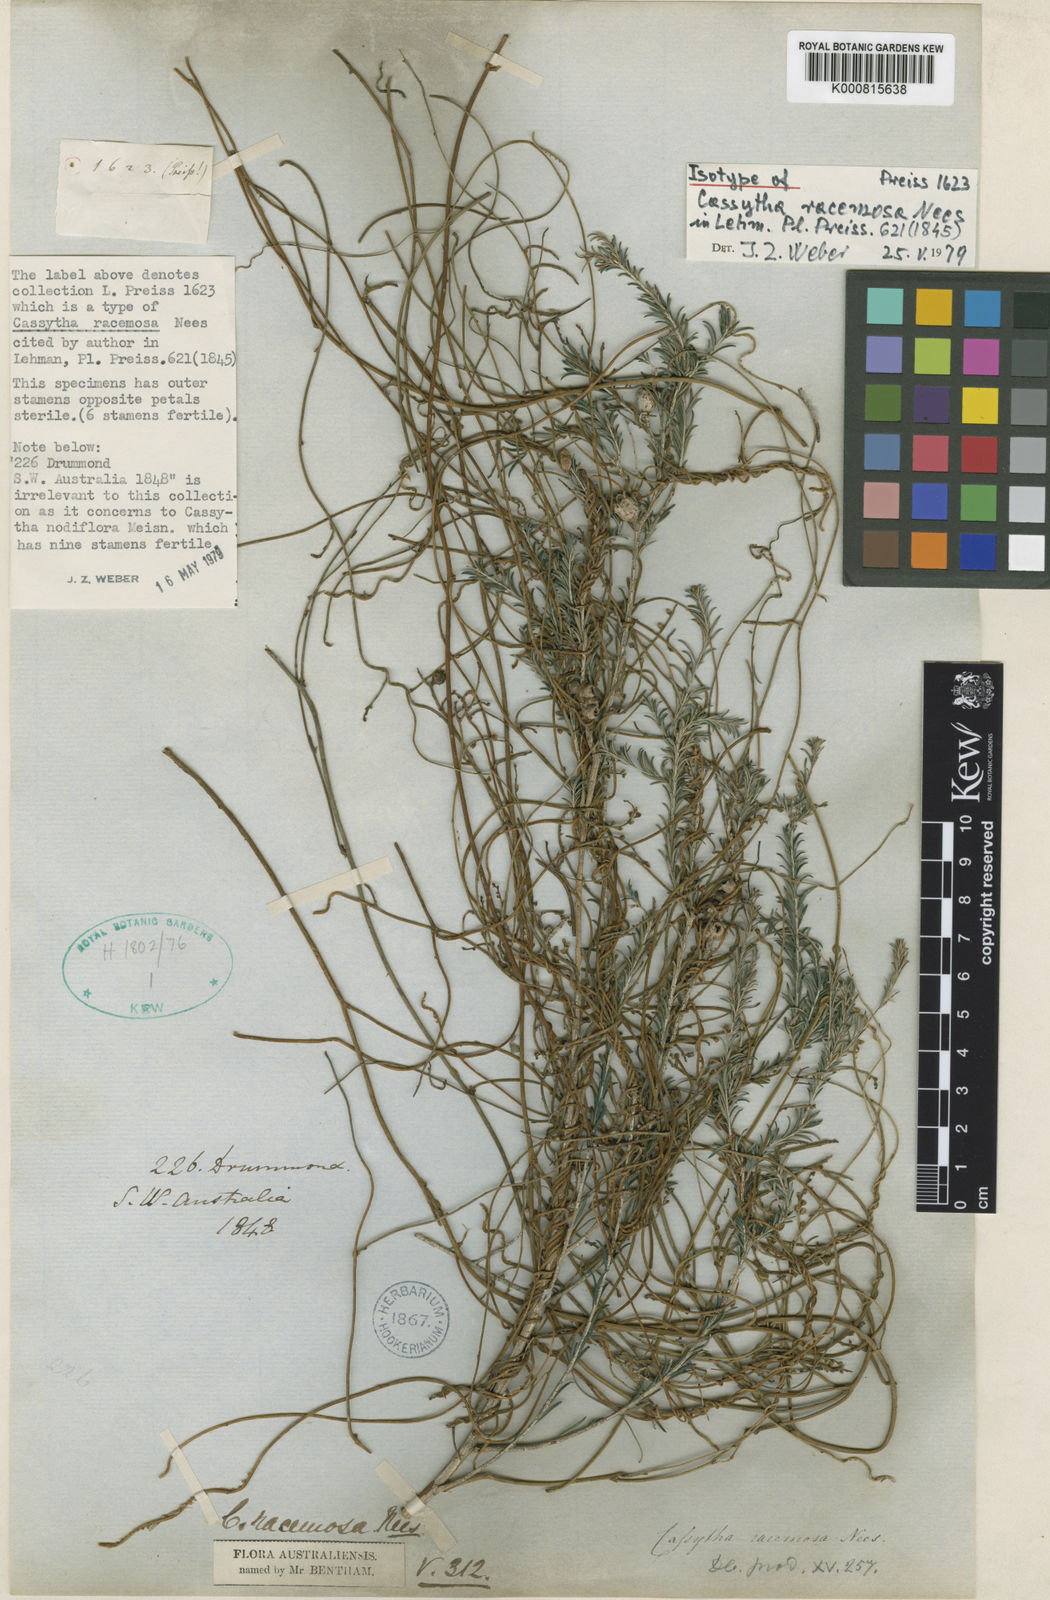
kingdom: Plantae
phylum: Tracheophyta
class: Magnoliopsida
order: Laurales
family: Lauraceae
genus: Cassytha
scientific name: Cassytha racemosa
